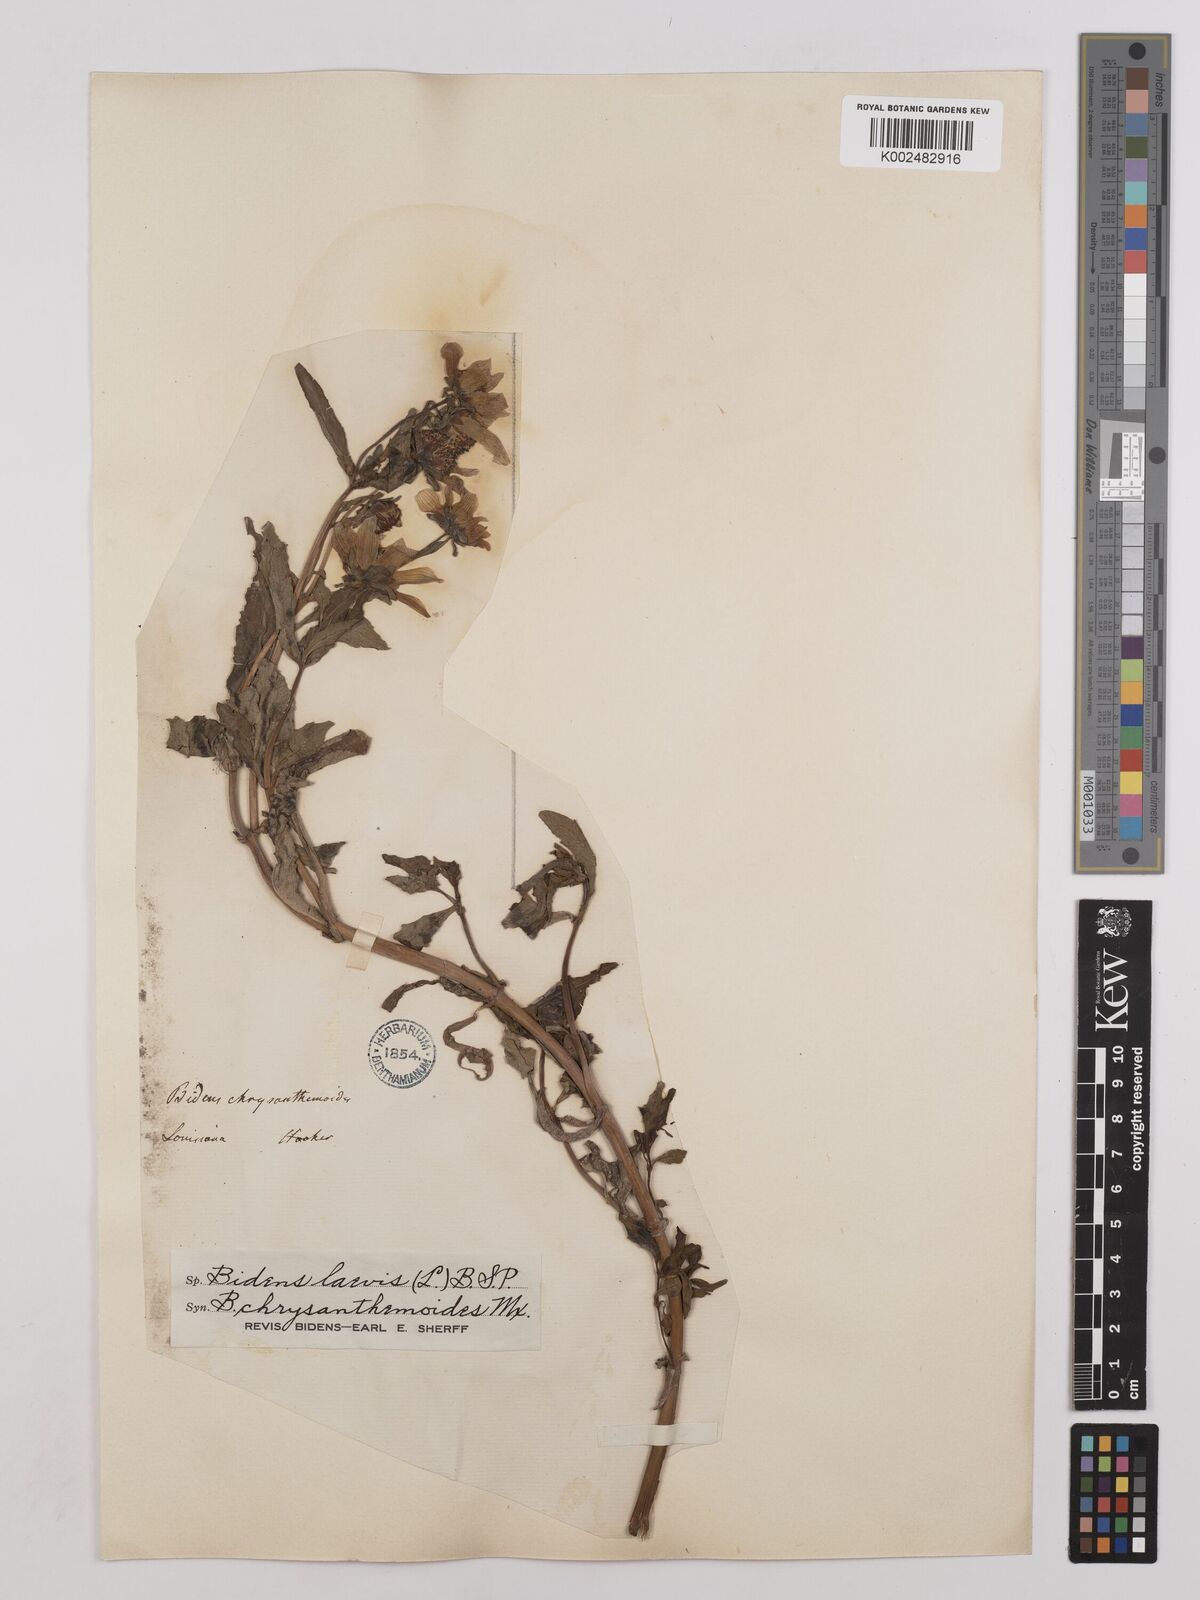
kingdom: Plantae
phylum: Tracheophyta
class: Magnoliopsida
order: Asterales
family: Asteraceae
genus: Bidens
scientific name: Bidens
